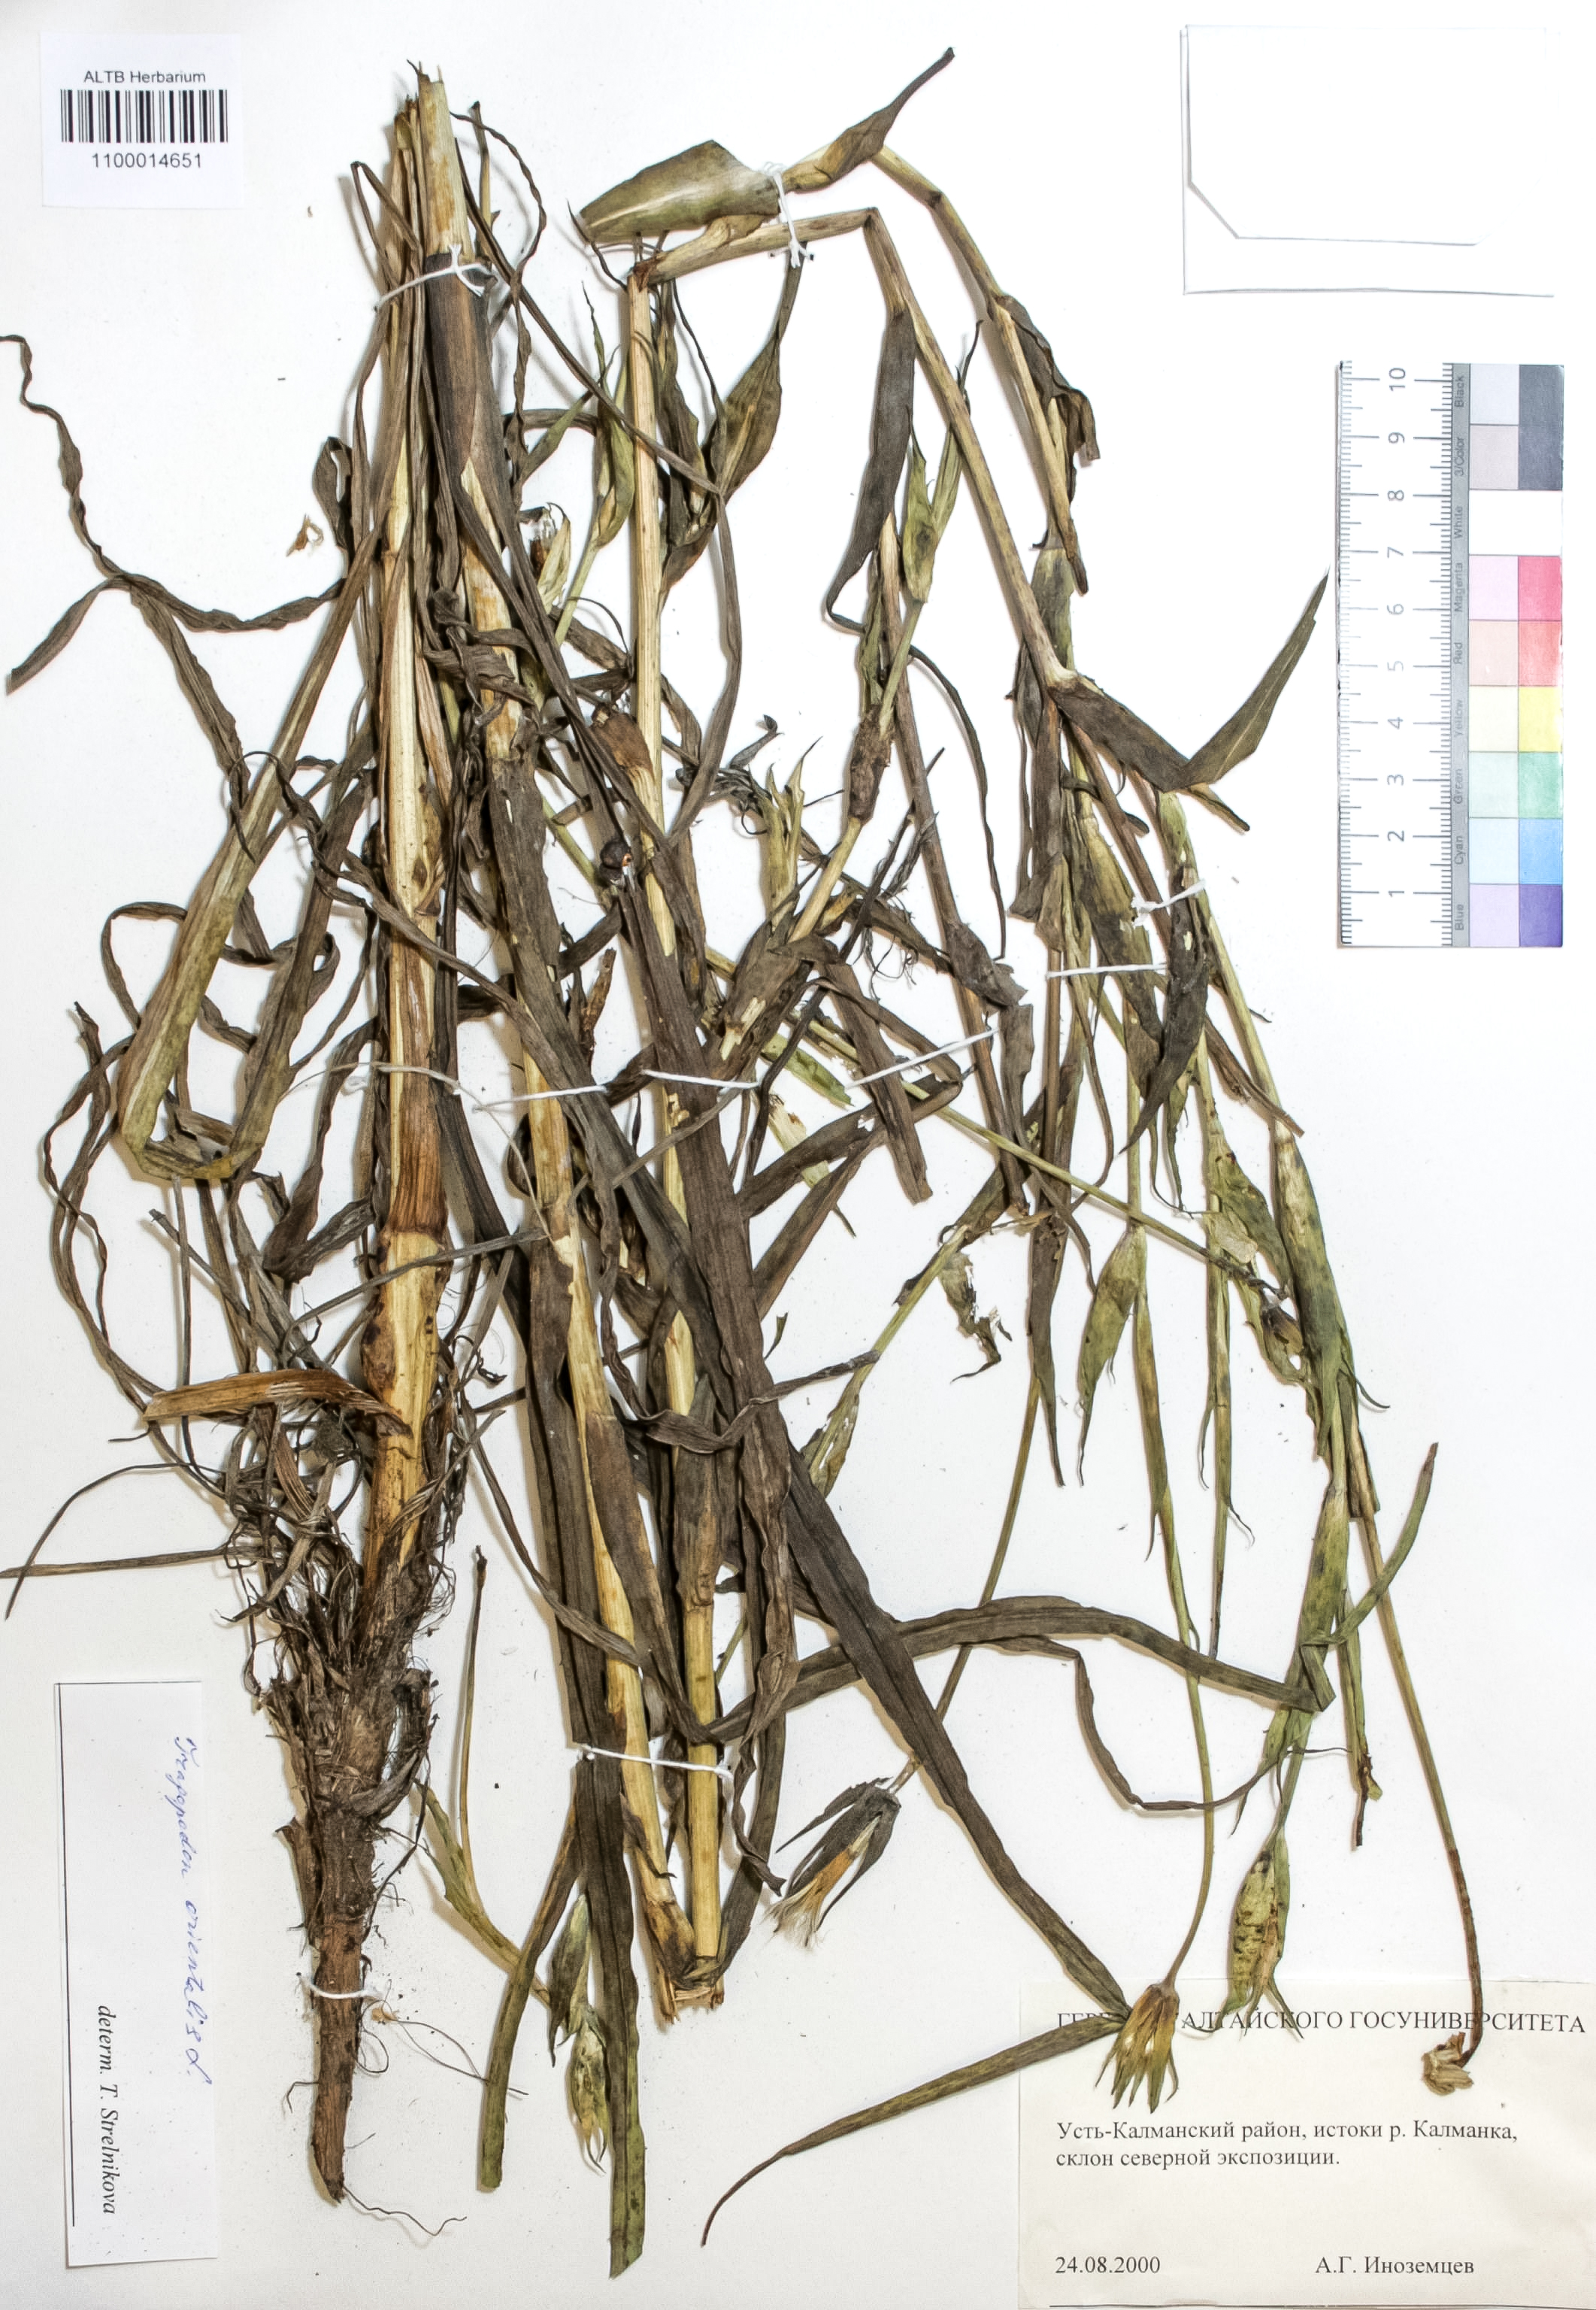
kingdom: Plantae
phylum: Tracheophyta
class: Magnoliopsida
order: Asterales
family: Asteraceae
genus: Tragopogon
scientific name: Tragopogon orientalis
